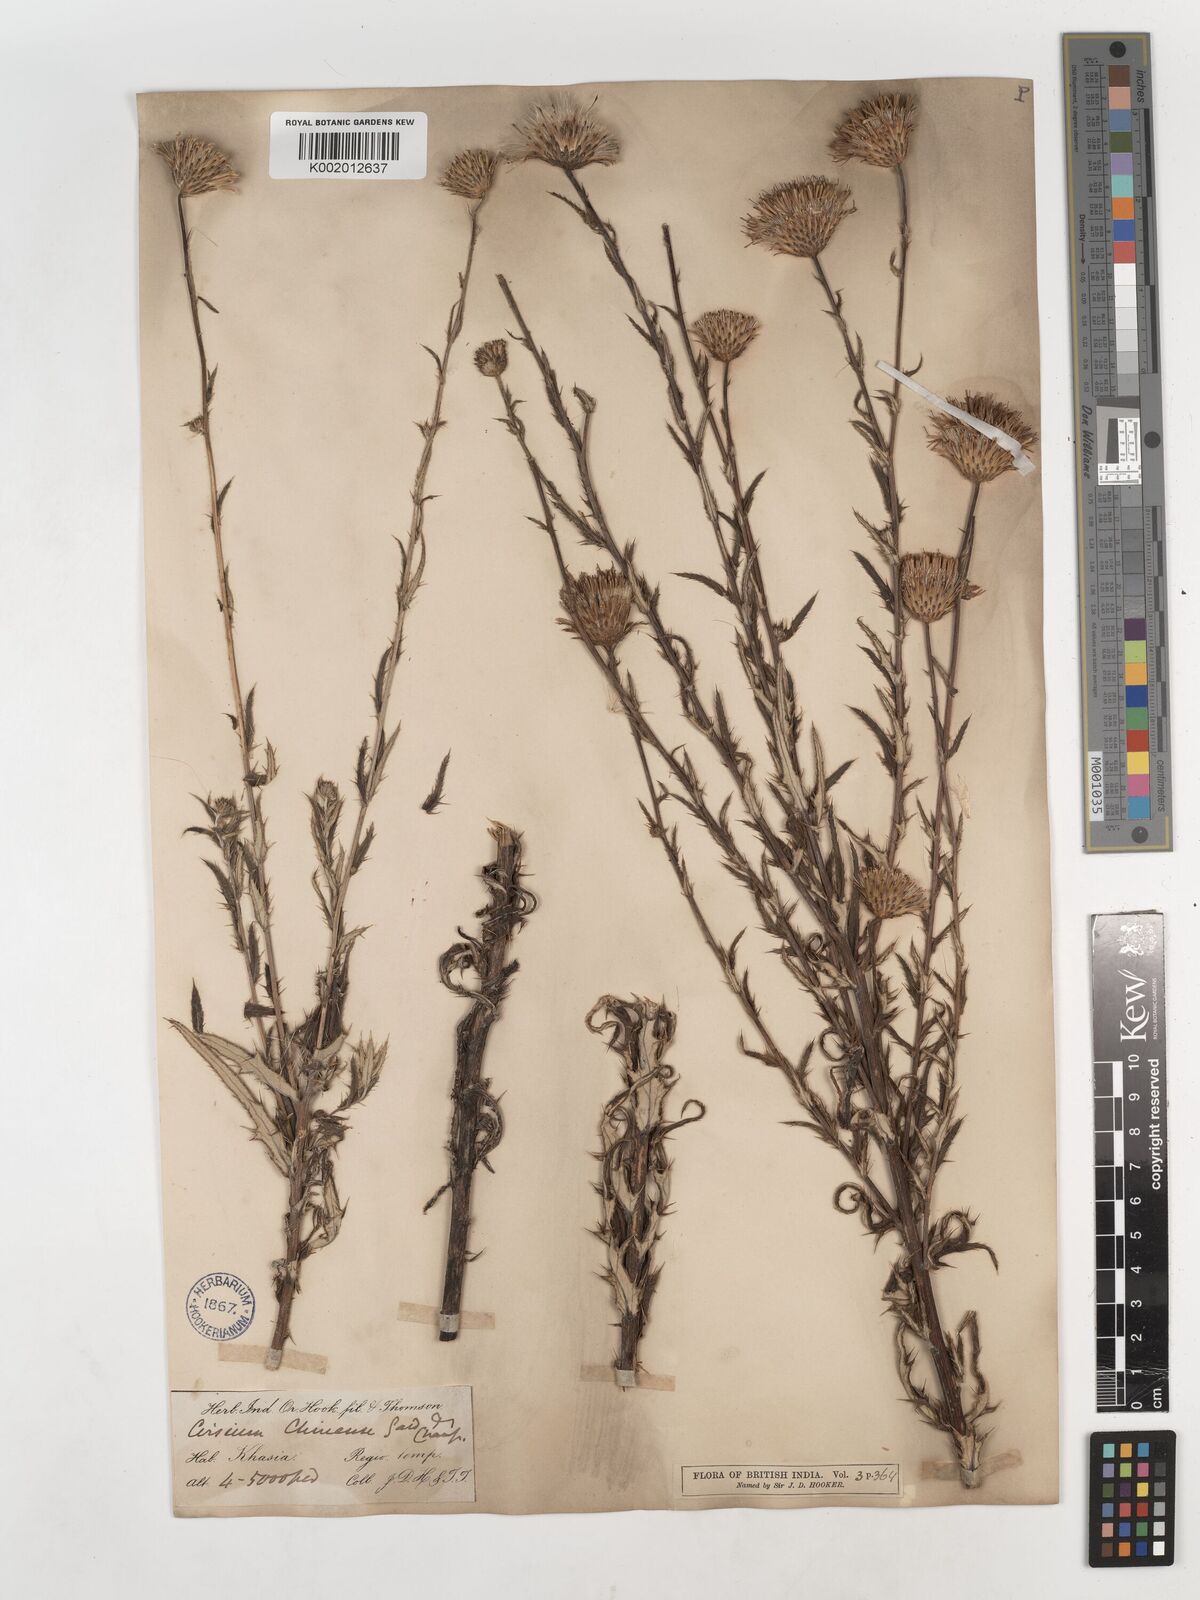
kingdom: Plantae
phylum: Tracheophyta
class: Magnoliopsida
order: Asterales
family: Asteraceae
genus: Cirsium
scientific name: Cirsium chinense
